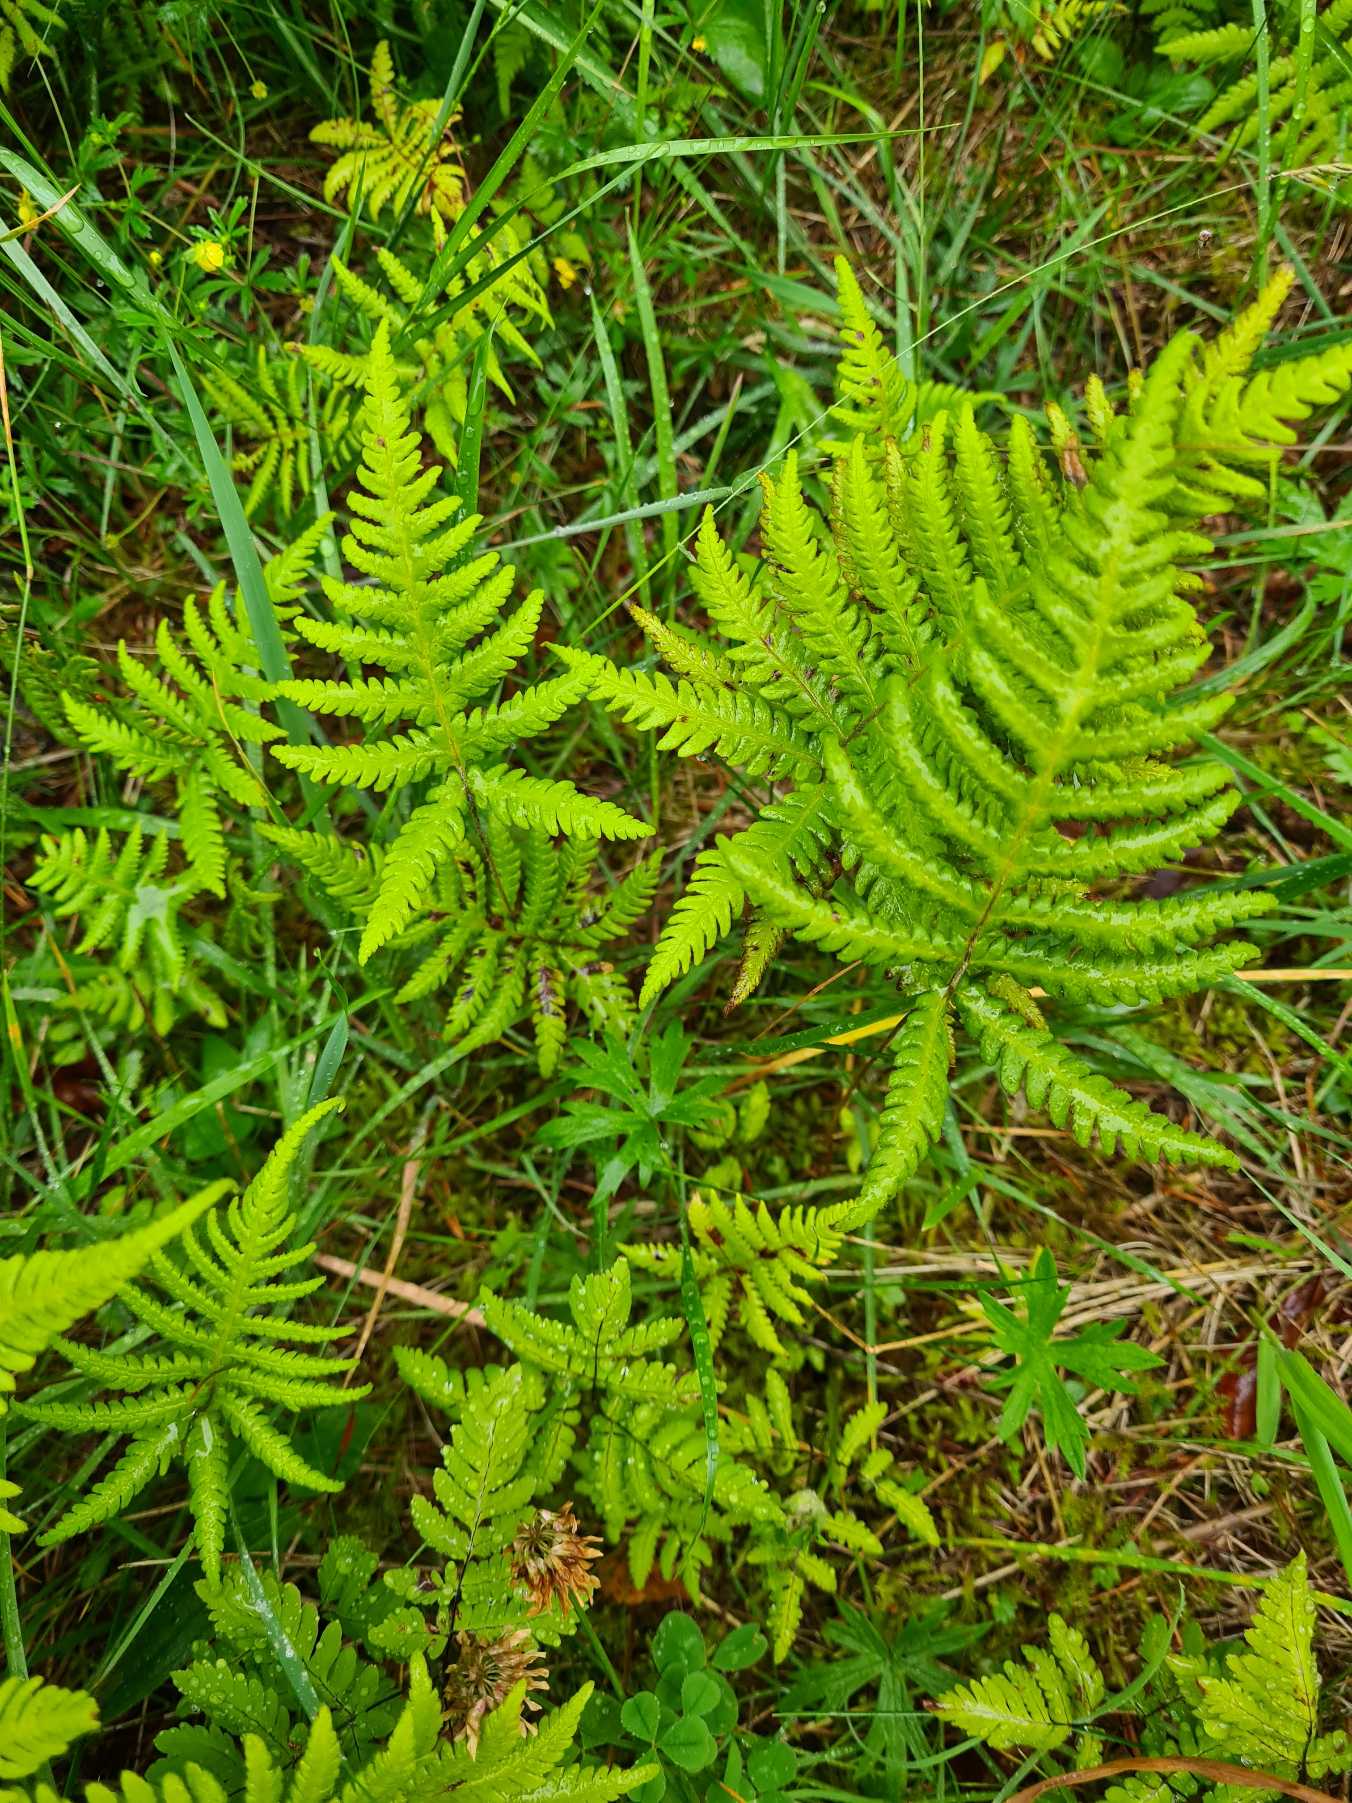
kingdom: Plantae
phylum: Tracheophyta
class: Polypodiopsida
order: Polypodiales
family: Thelypteridaceae
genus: Phegopteris
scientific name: Phegopteris connectilis
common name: Dunet egebregne
